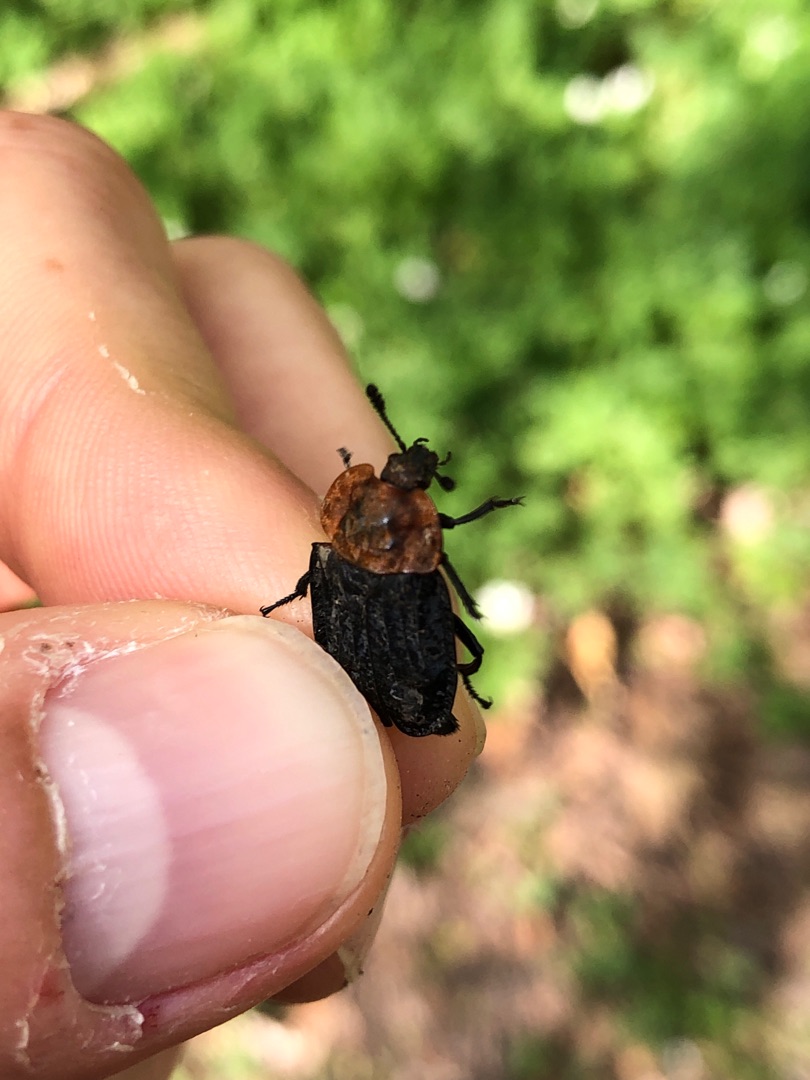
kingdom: Animalia
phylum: Arthropoda
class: Insecta
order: Coleoptera
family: Staphylinidae
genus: Oiceoptoma
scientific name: Oiceoptoma thoracicum
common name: Rødbrystet ådselbille
